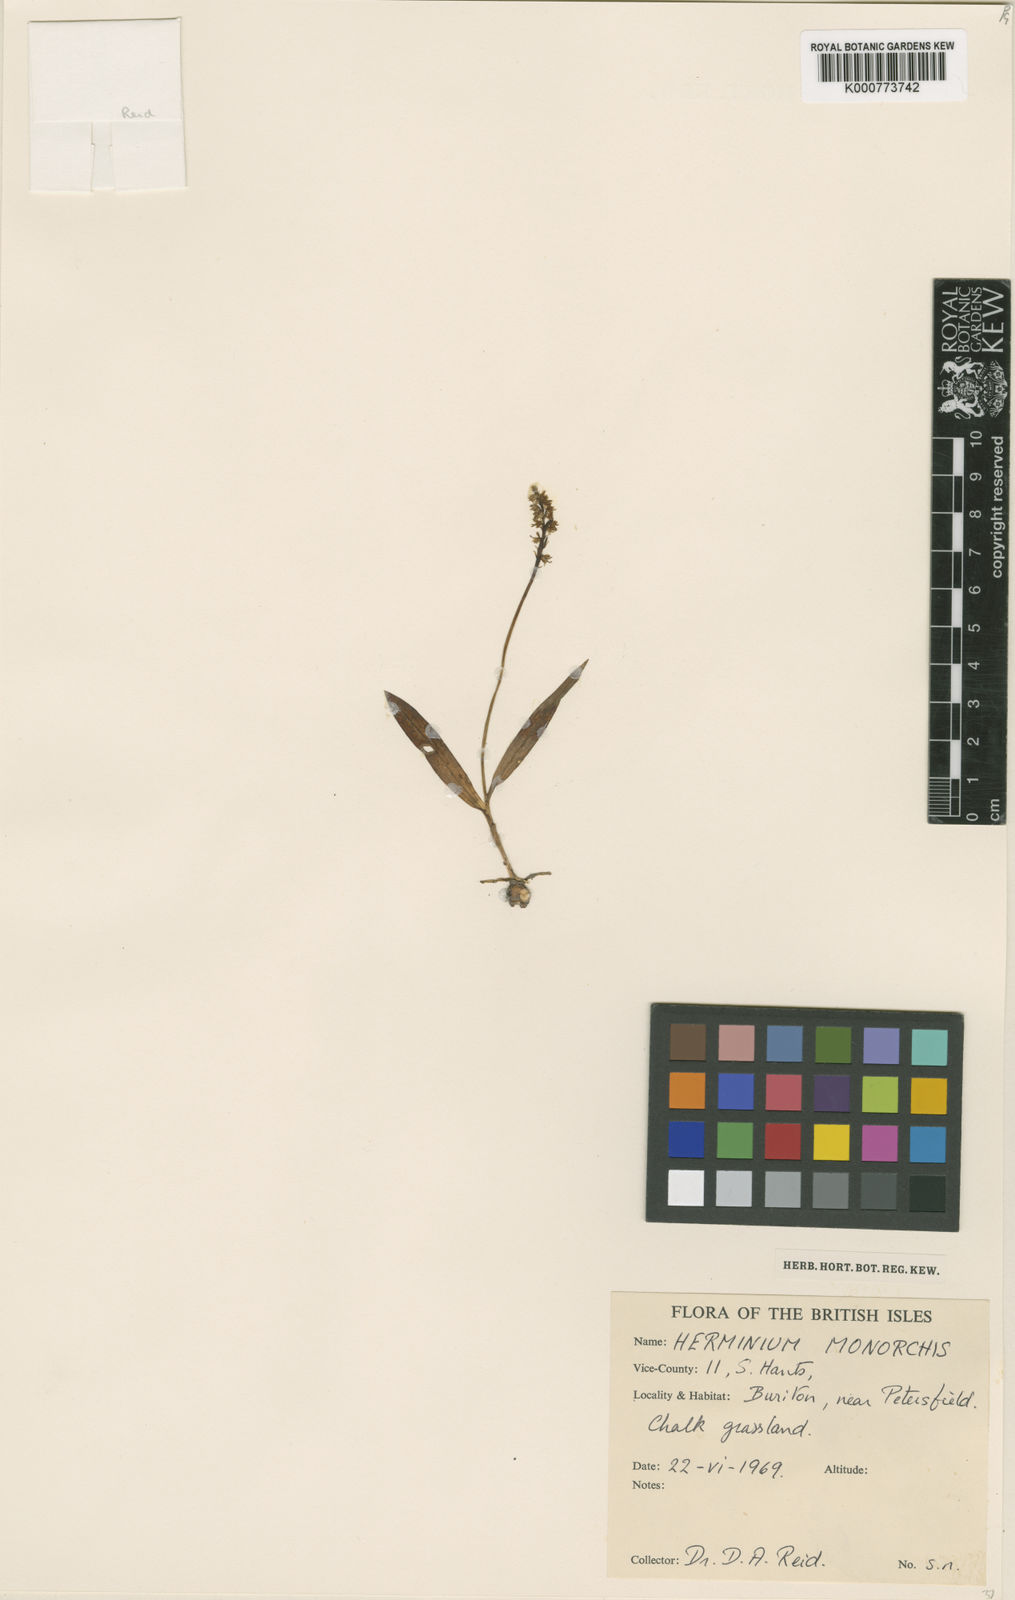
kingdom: Plantae
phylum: Tracheophyta
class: Liliopsida
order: Asparagales
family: Orchidaceae
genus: Herminium
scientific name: Herminium monorchis
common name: Musk orchid
